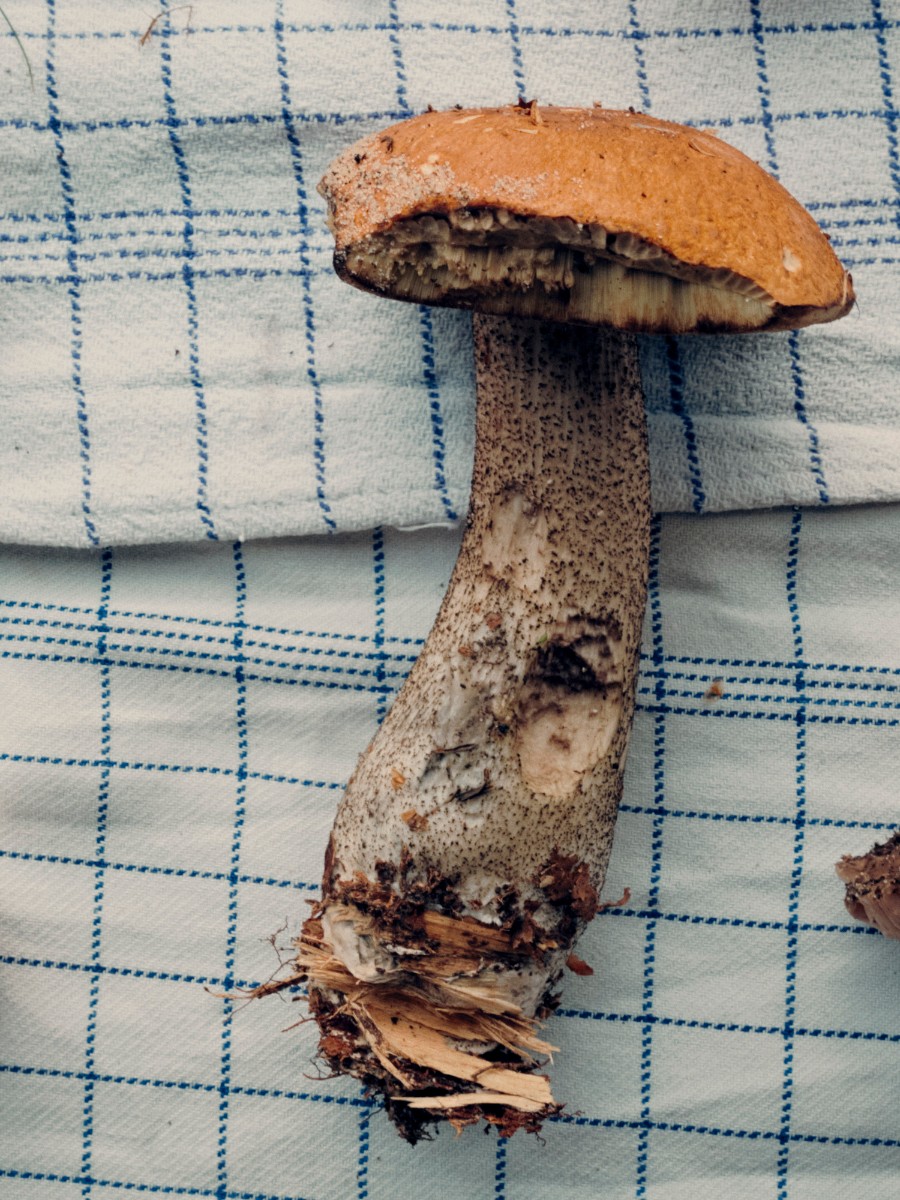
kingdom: Fungi
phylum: Basidiomycota
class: Agaricomycetes
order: Boletales
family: Boletaceae
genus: Leccinum
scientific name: Leccinum
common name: skælrørhat
